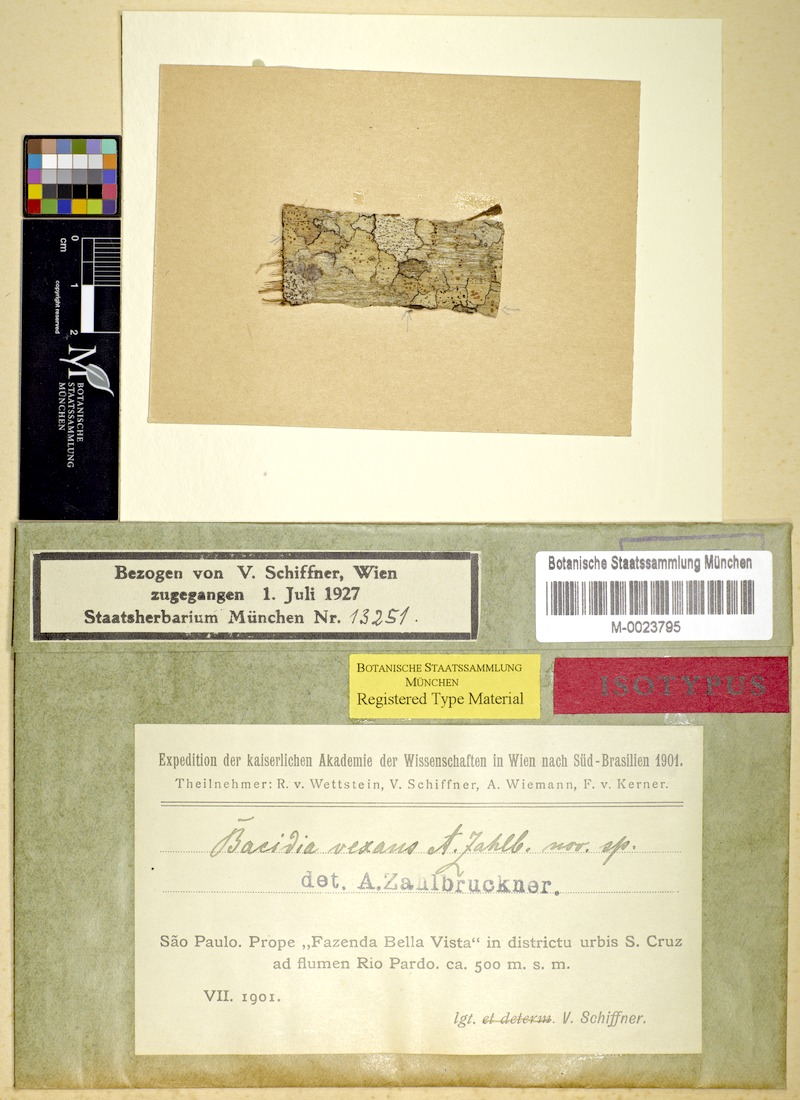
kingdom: Fungi
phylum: Ascomycota
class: Lecanoromycetes
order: Lecanorales
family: Ramalinaceae
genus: Bacidia
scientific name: Bacidia hostheleoides
